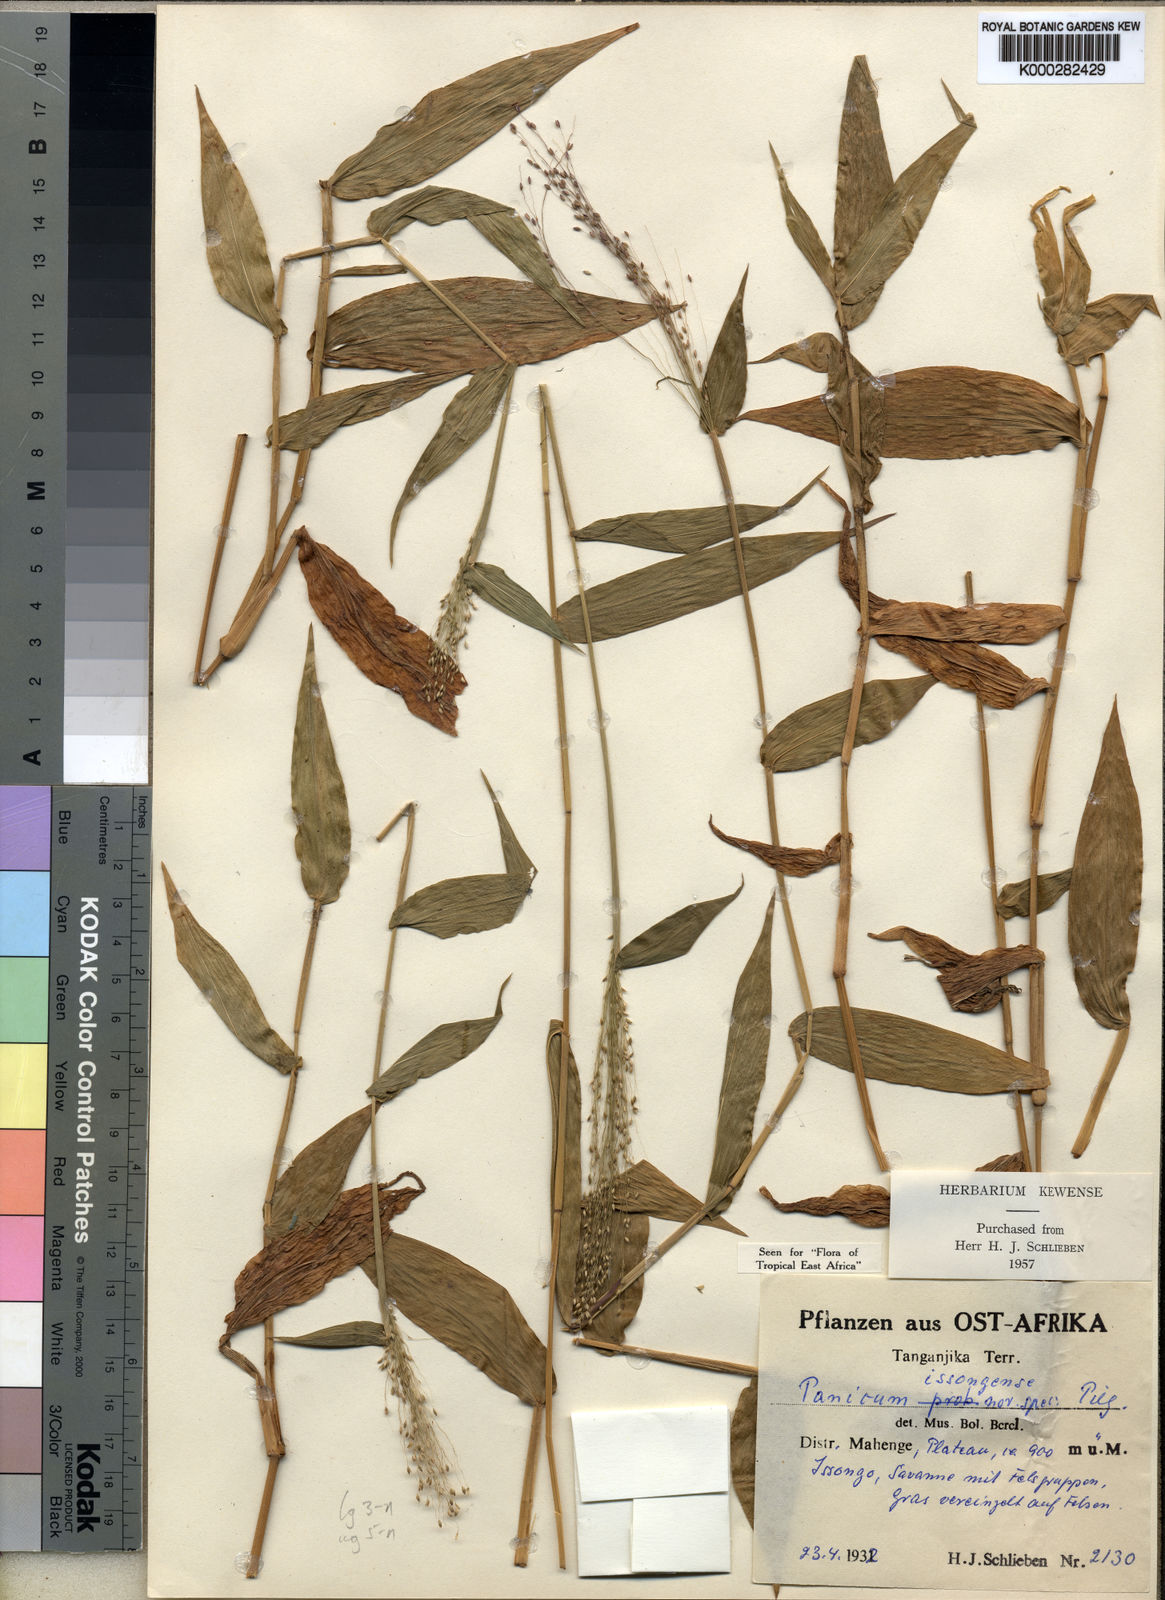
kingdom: Plantae
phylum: Tracheophyta
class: Liliopsida
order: Poales
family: Poaceae
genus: Panicum
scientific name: Panicum issongense
